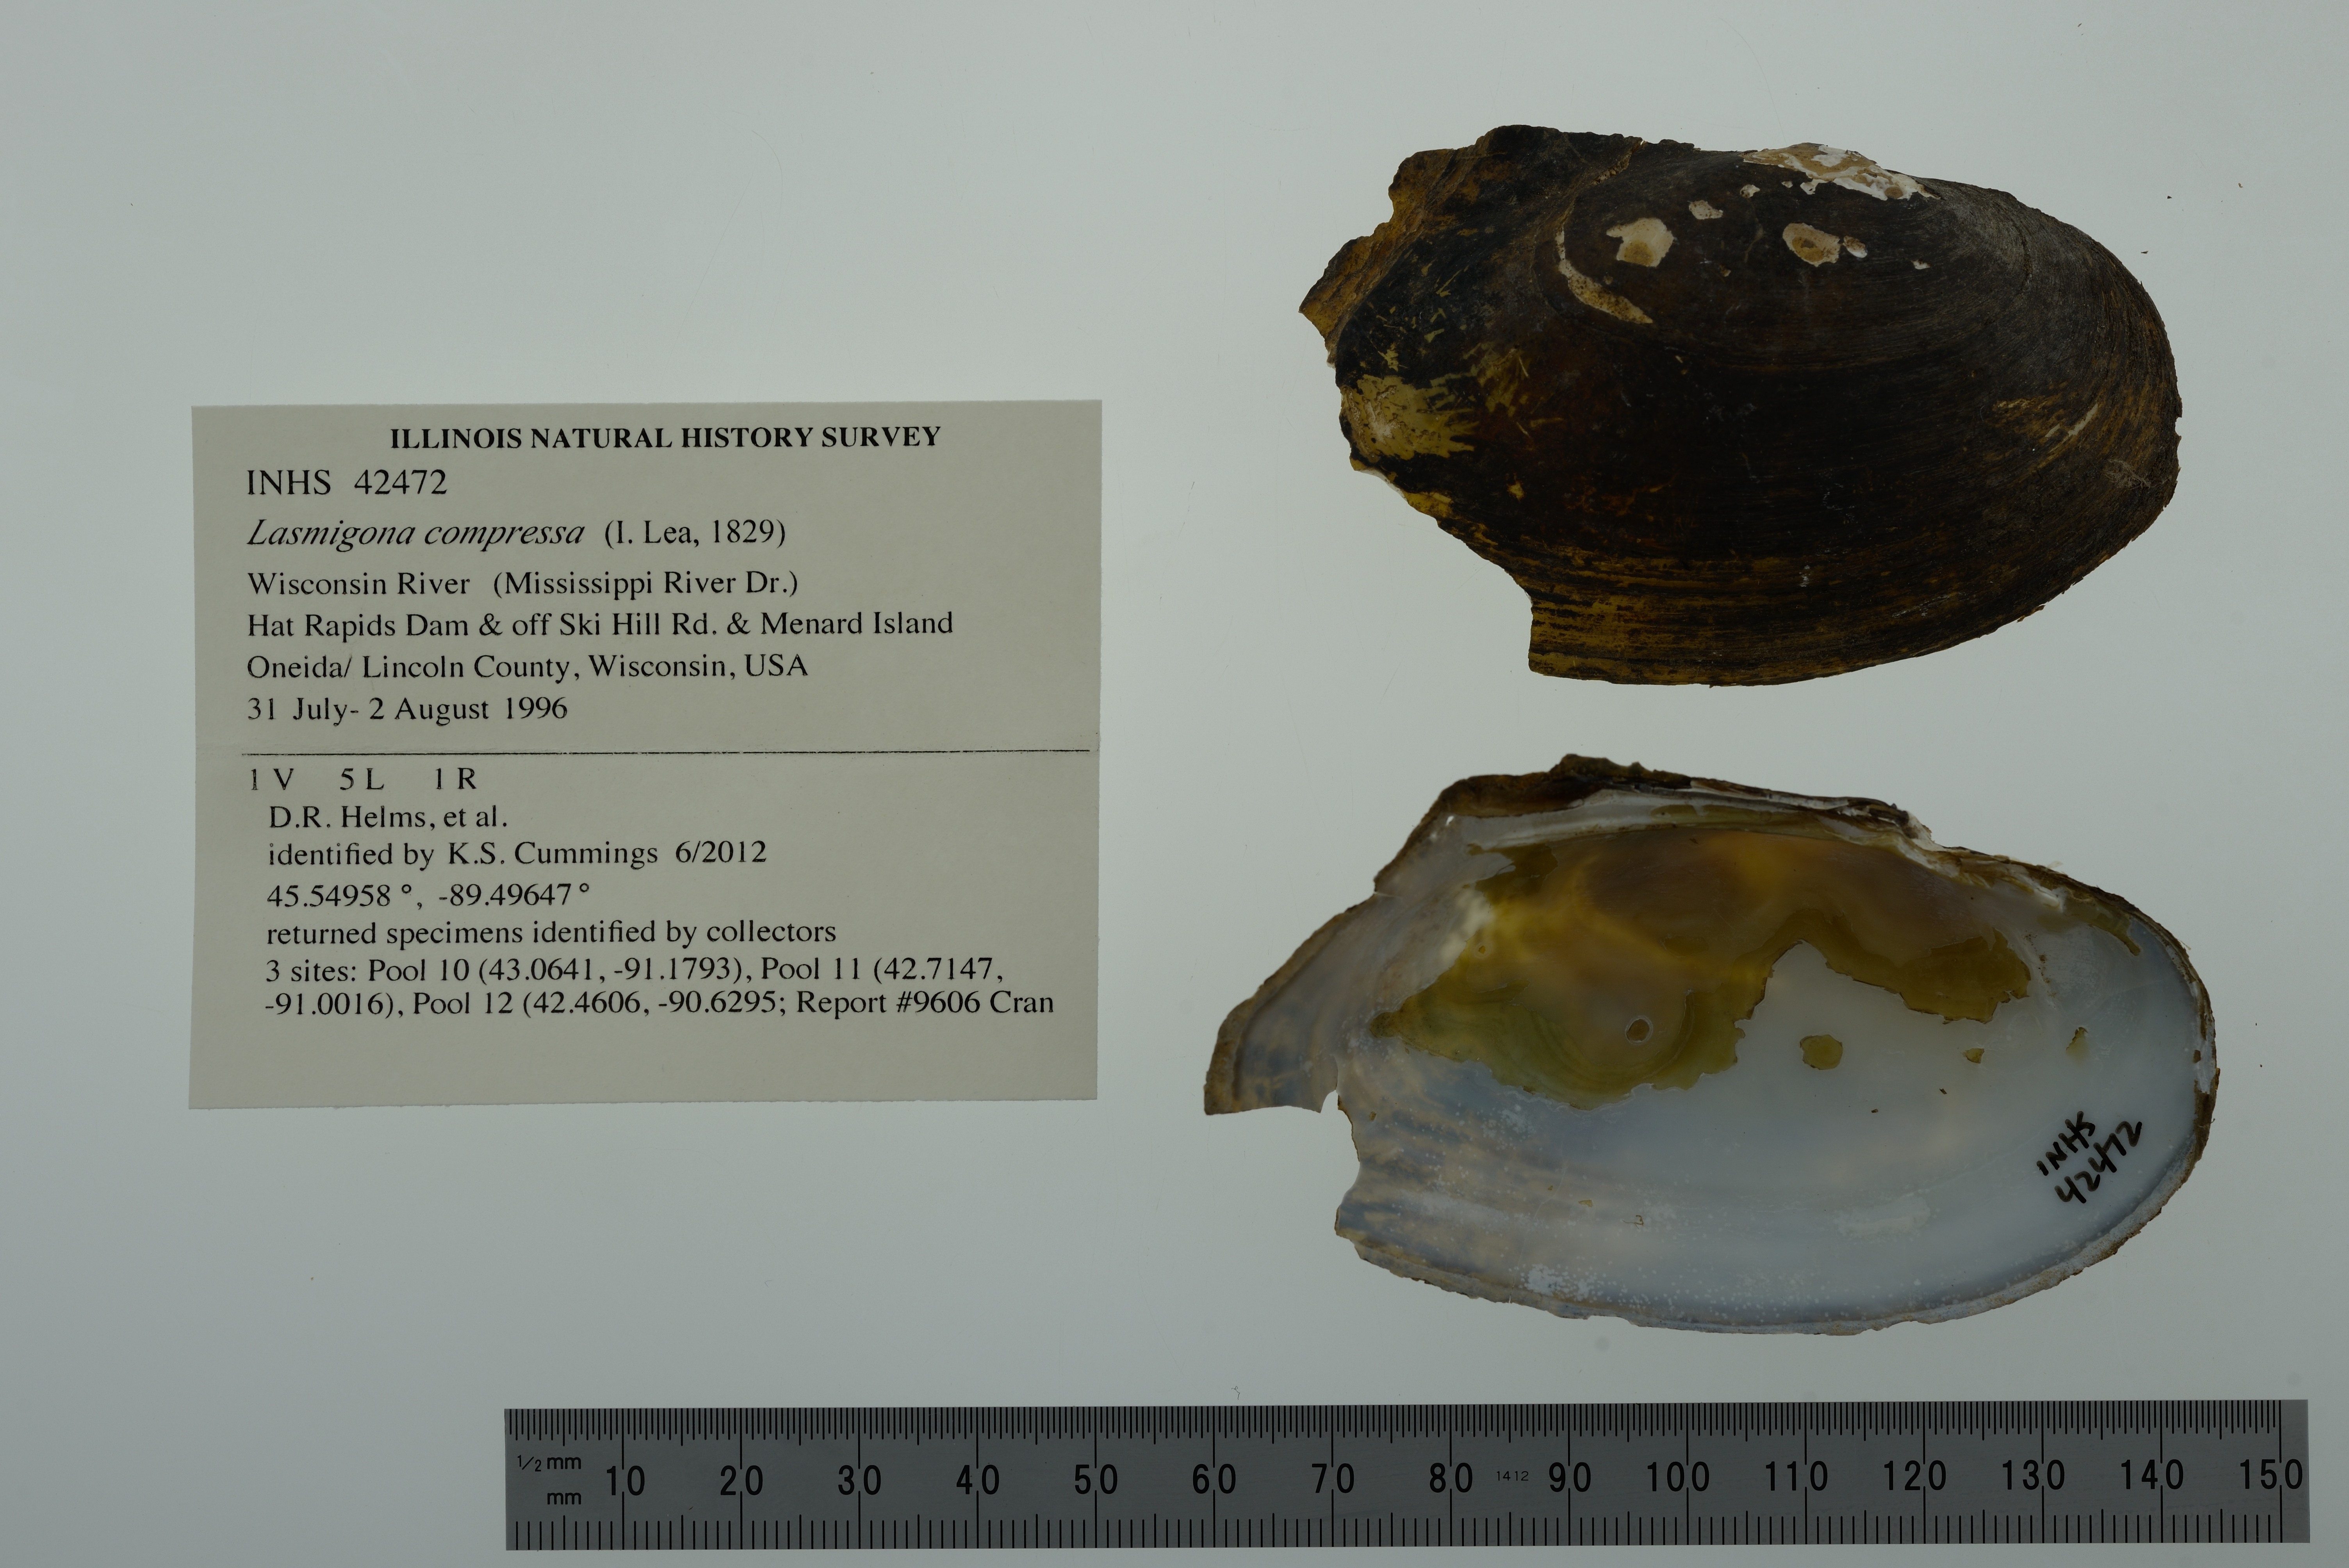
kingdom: Animalia
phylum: Mollusca
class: Bivalvia
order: Unionida
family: Unionidae
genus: Lasmigona
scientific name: Lasmigona compressa
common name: Creek heelsplitter
